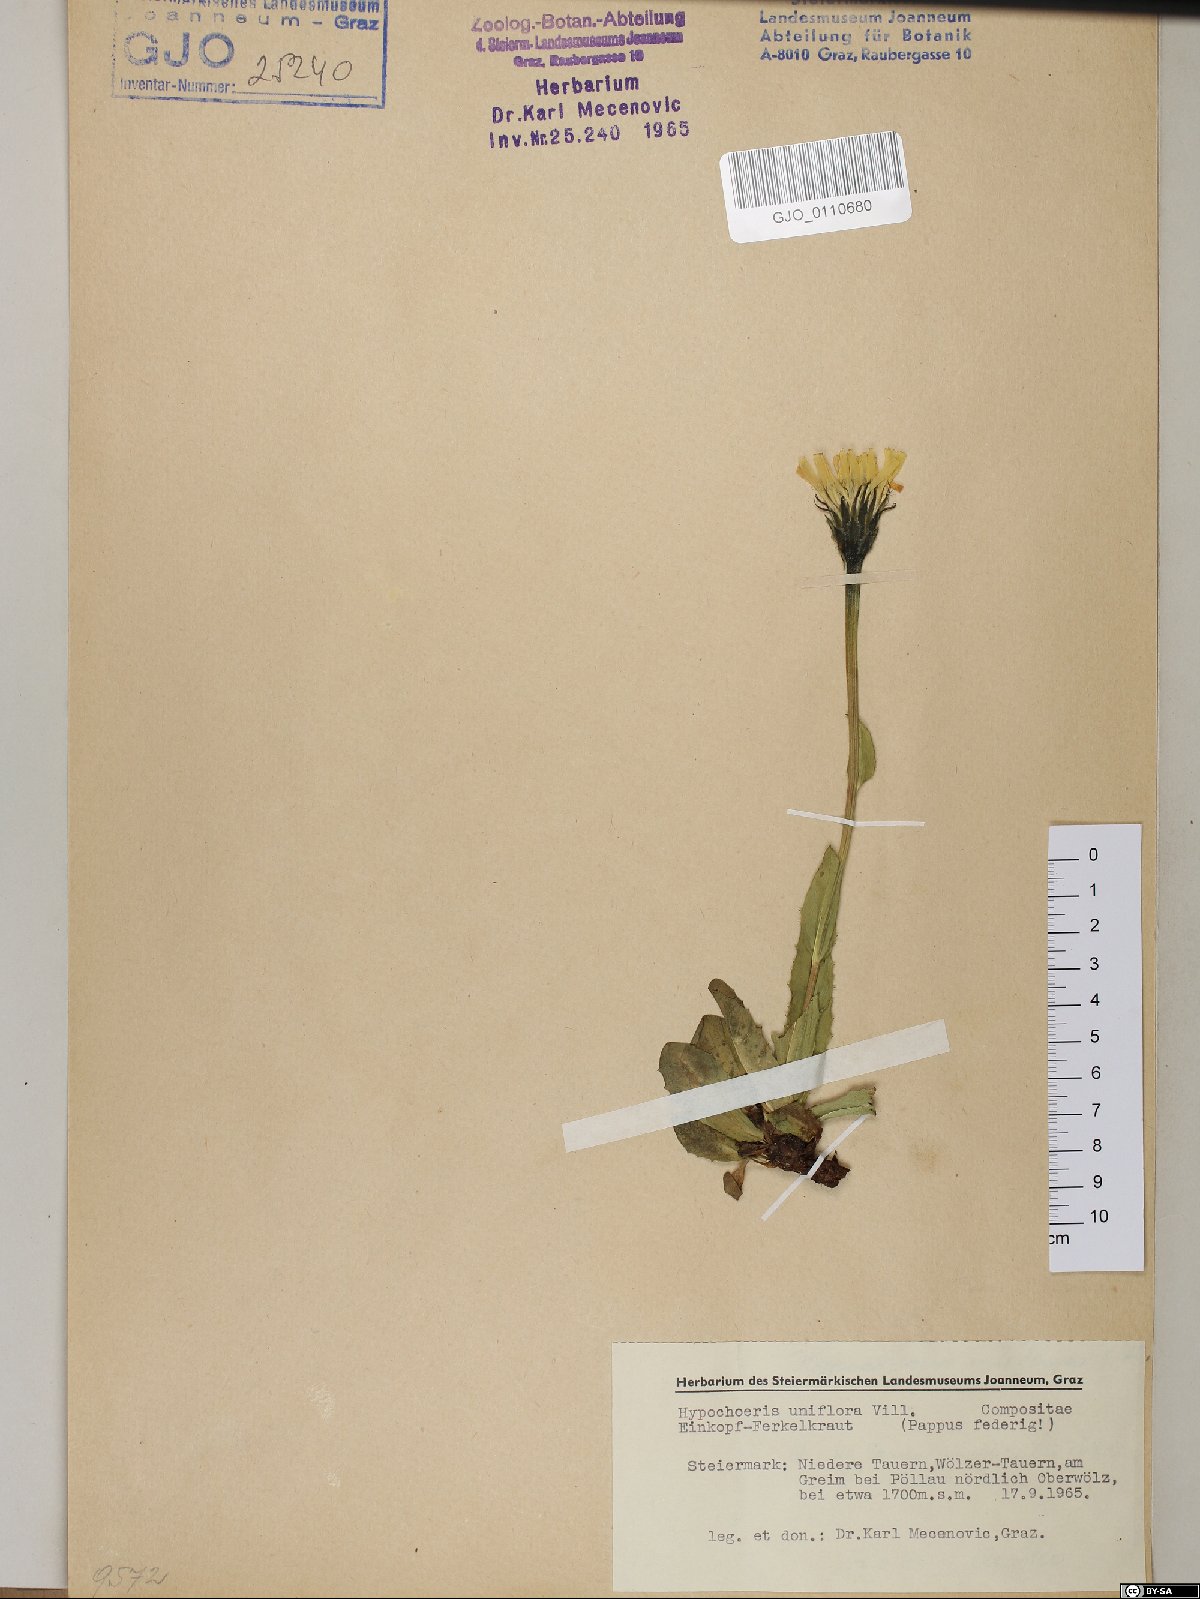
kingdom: Plantae
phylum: Tracheophyta
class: Magnoliopsida
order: Asterales
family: Asteraceae
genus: Trommsdorffia
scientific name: Trommsdorffia uniflora
